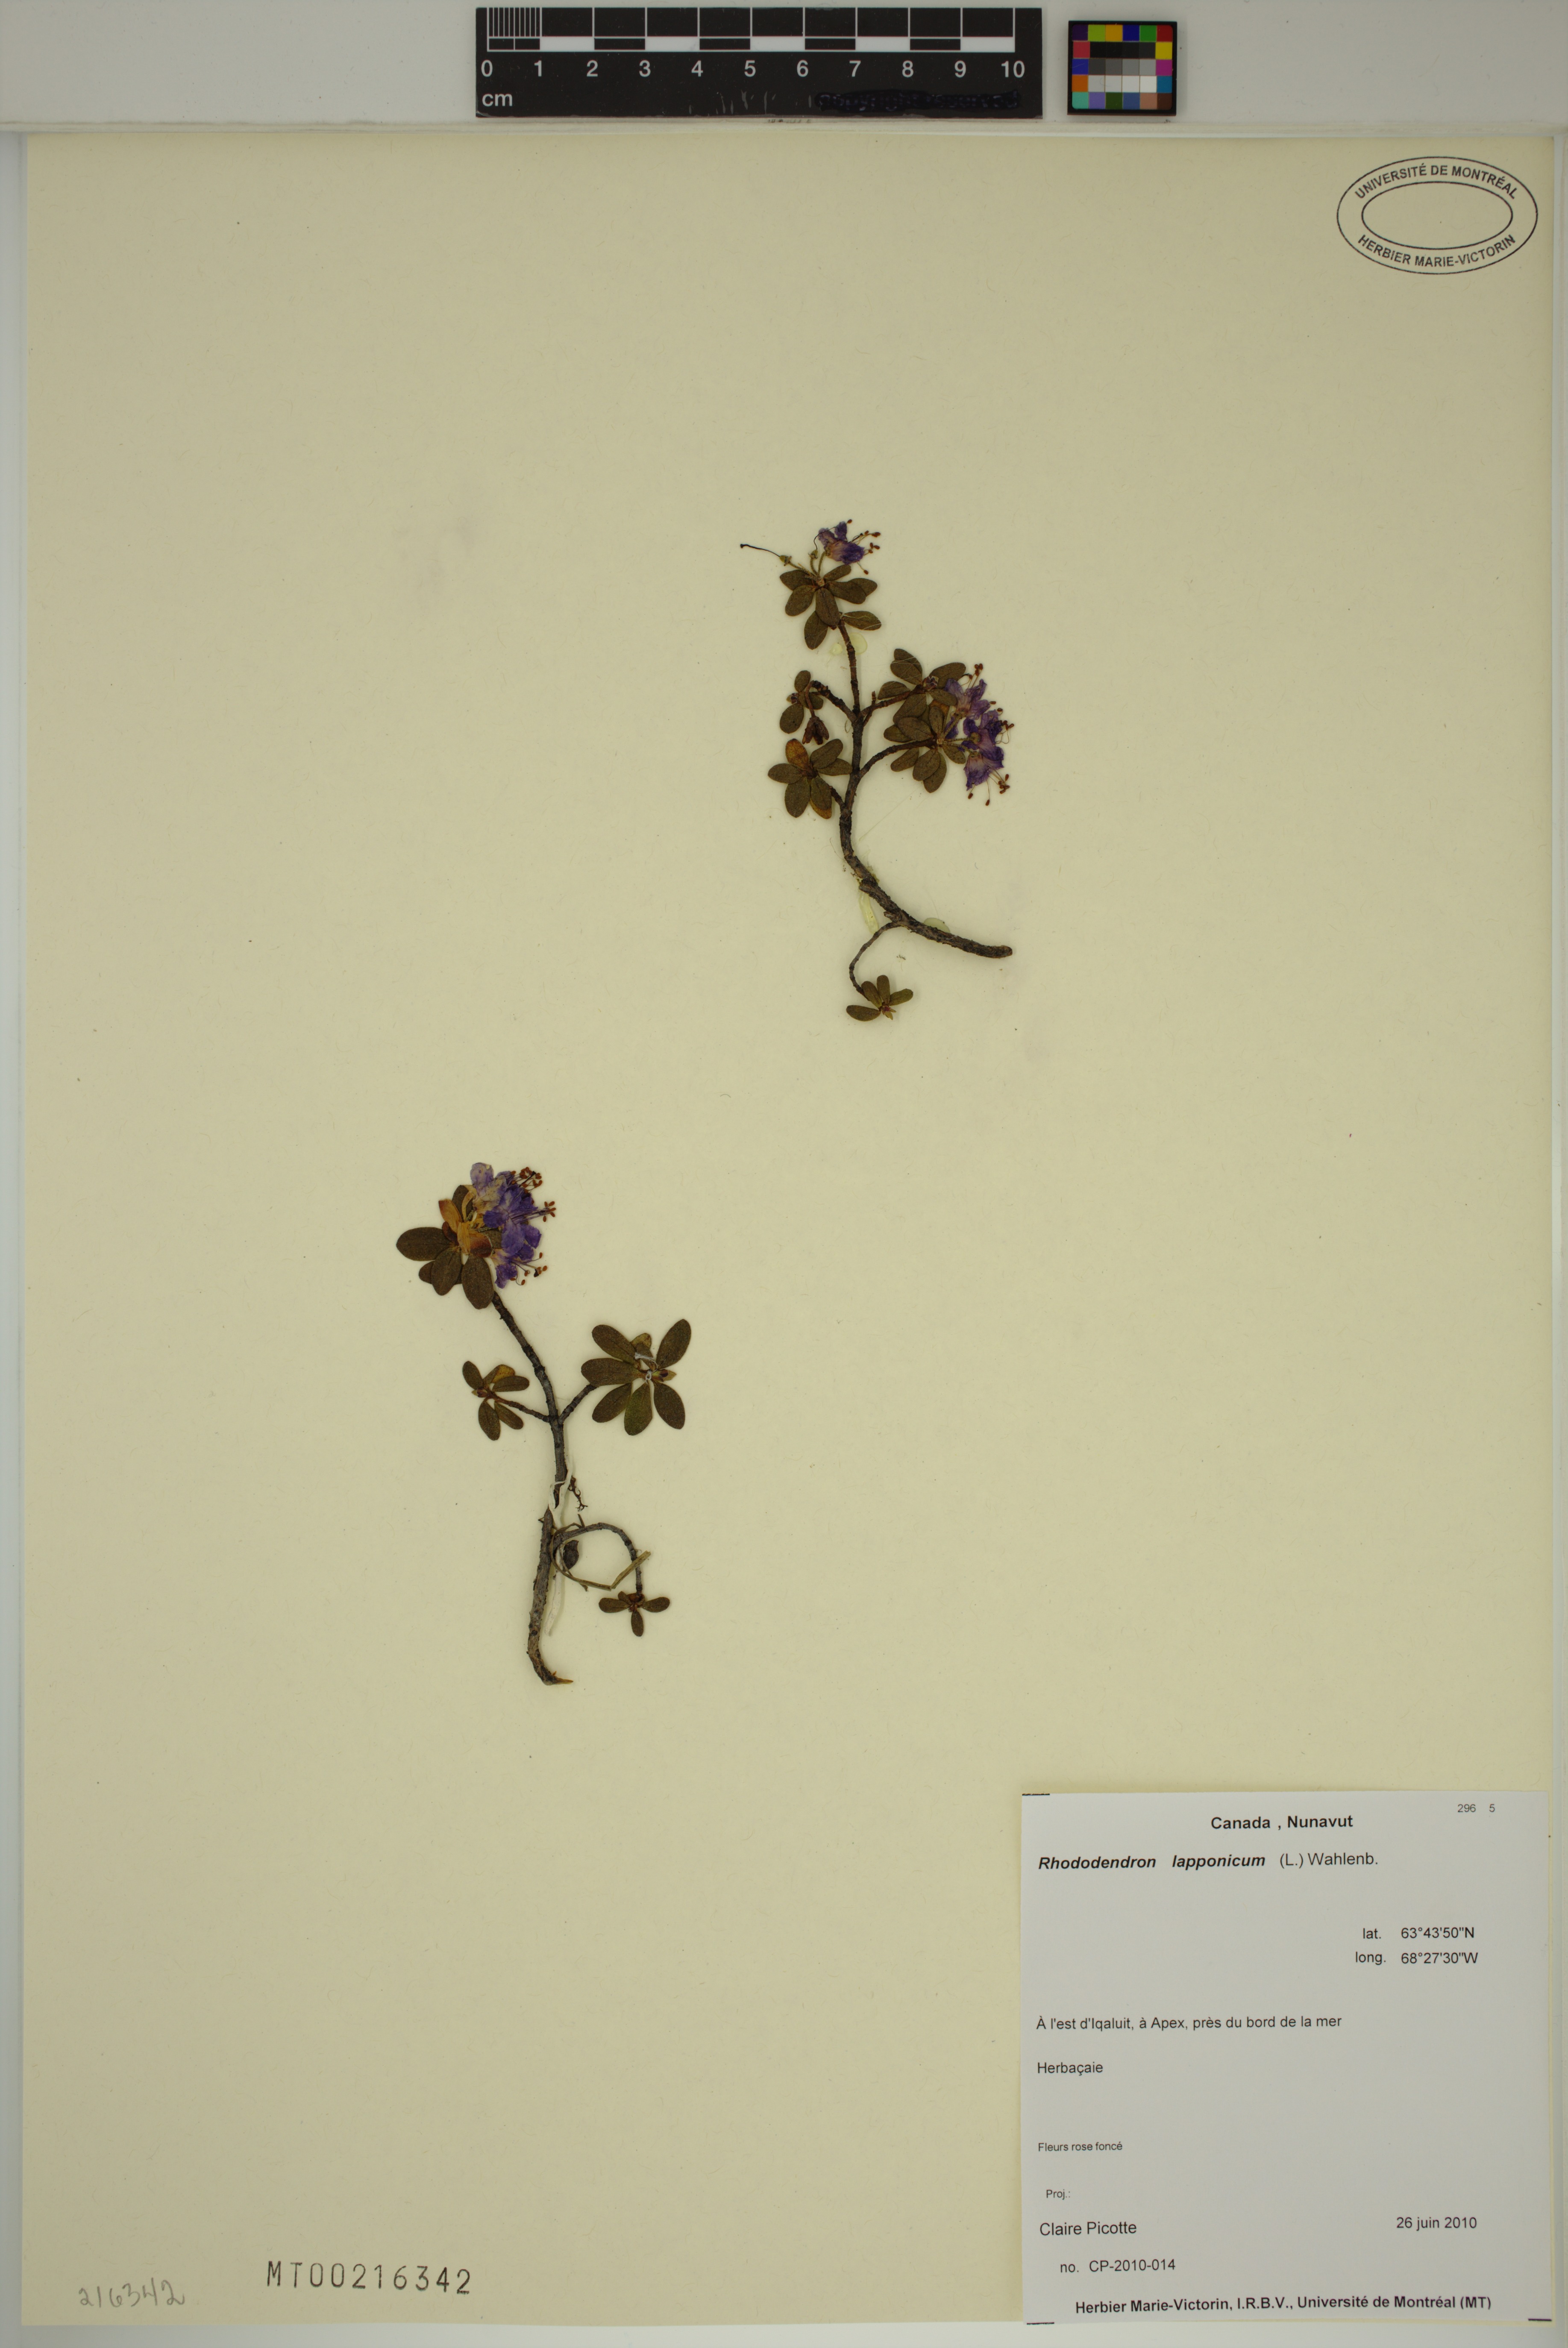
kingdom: Plantae
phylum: Tracheophyta
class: Magnoliopsida
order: Ericales
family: Ericaceae
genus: Rhododendron
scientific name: Rhododendron lapponicum
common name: Lapland rhododendron
